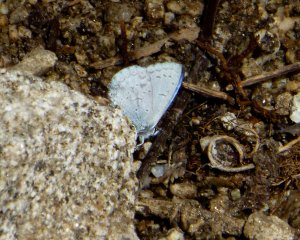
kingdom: Animalia
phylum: Arthropoda
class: Insecta
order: Lepidoptera
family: Lycaenidae
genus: Celastrina
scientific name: Celastrina
